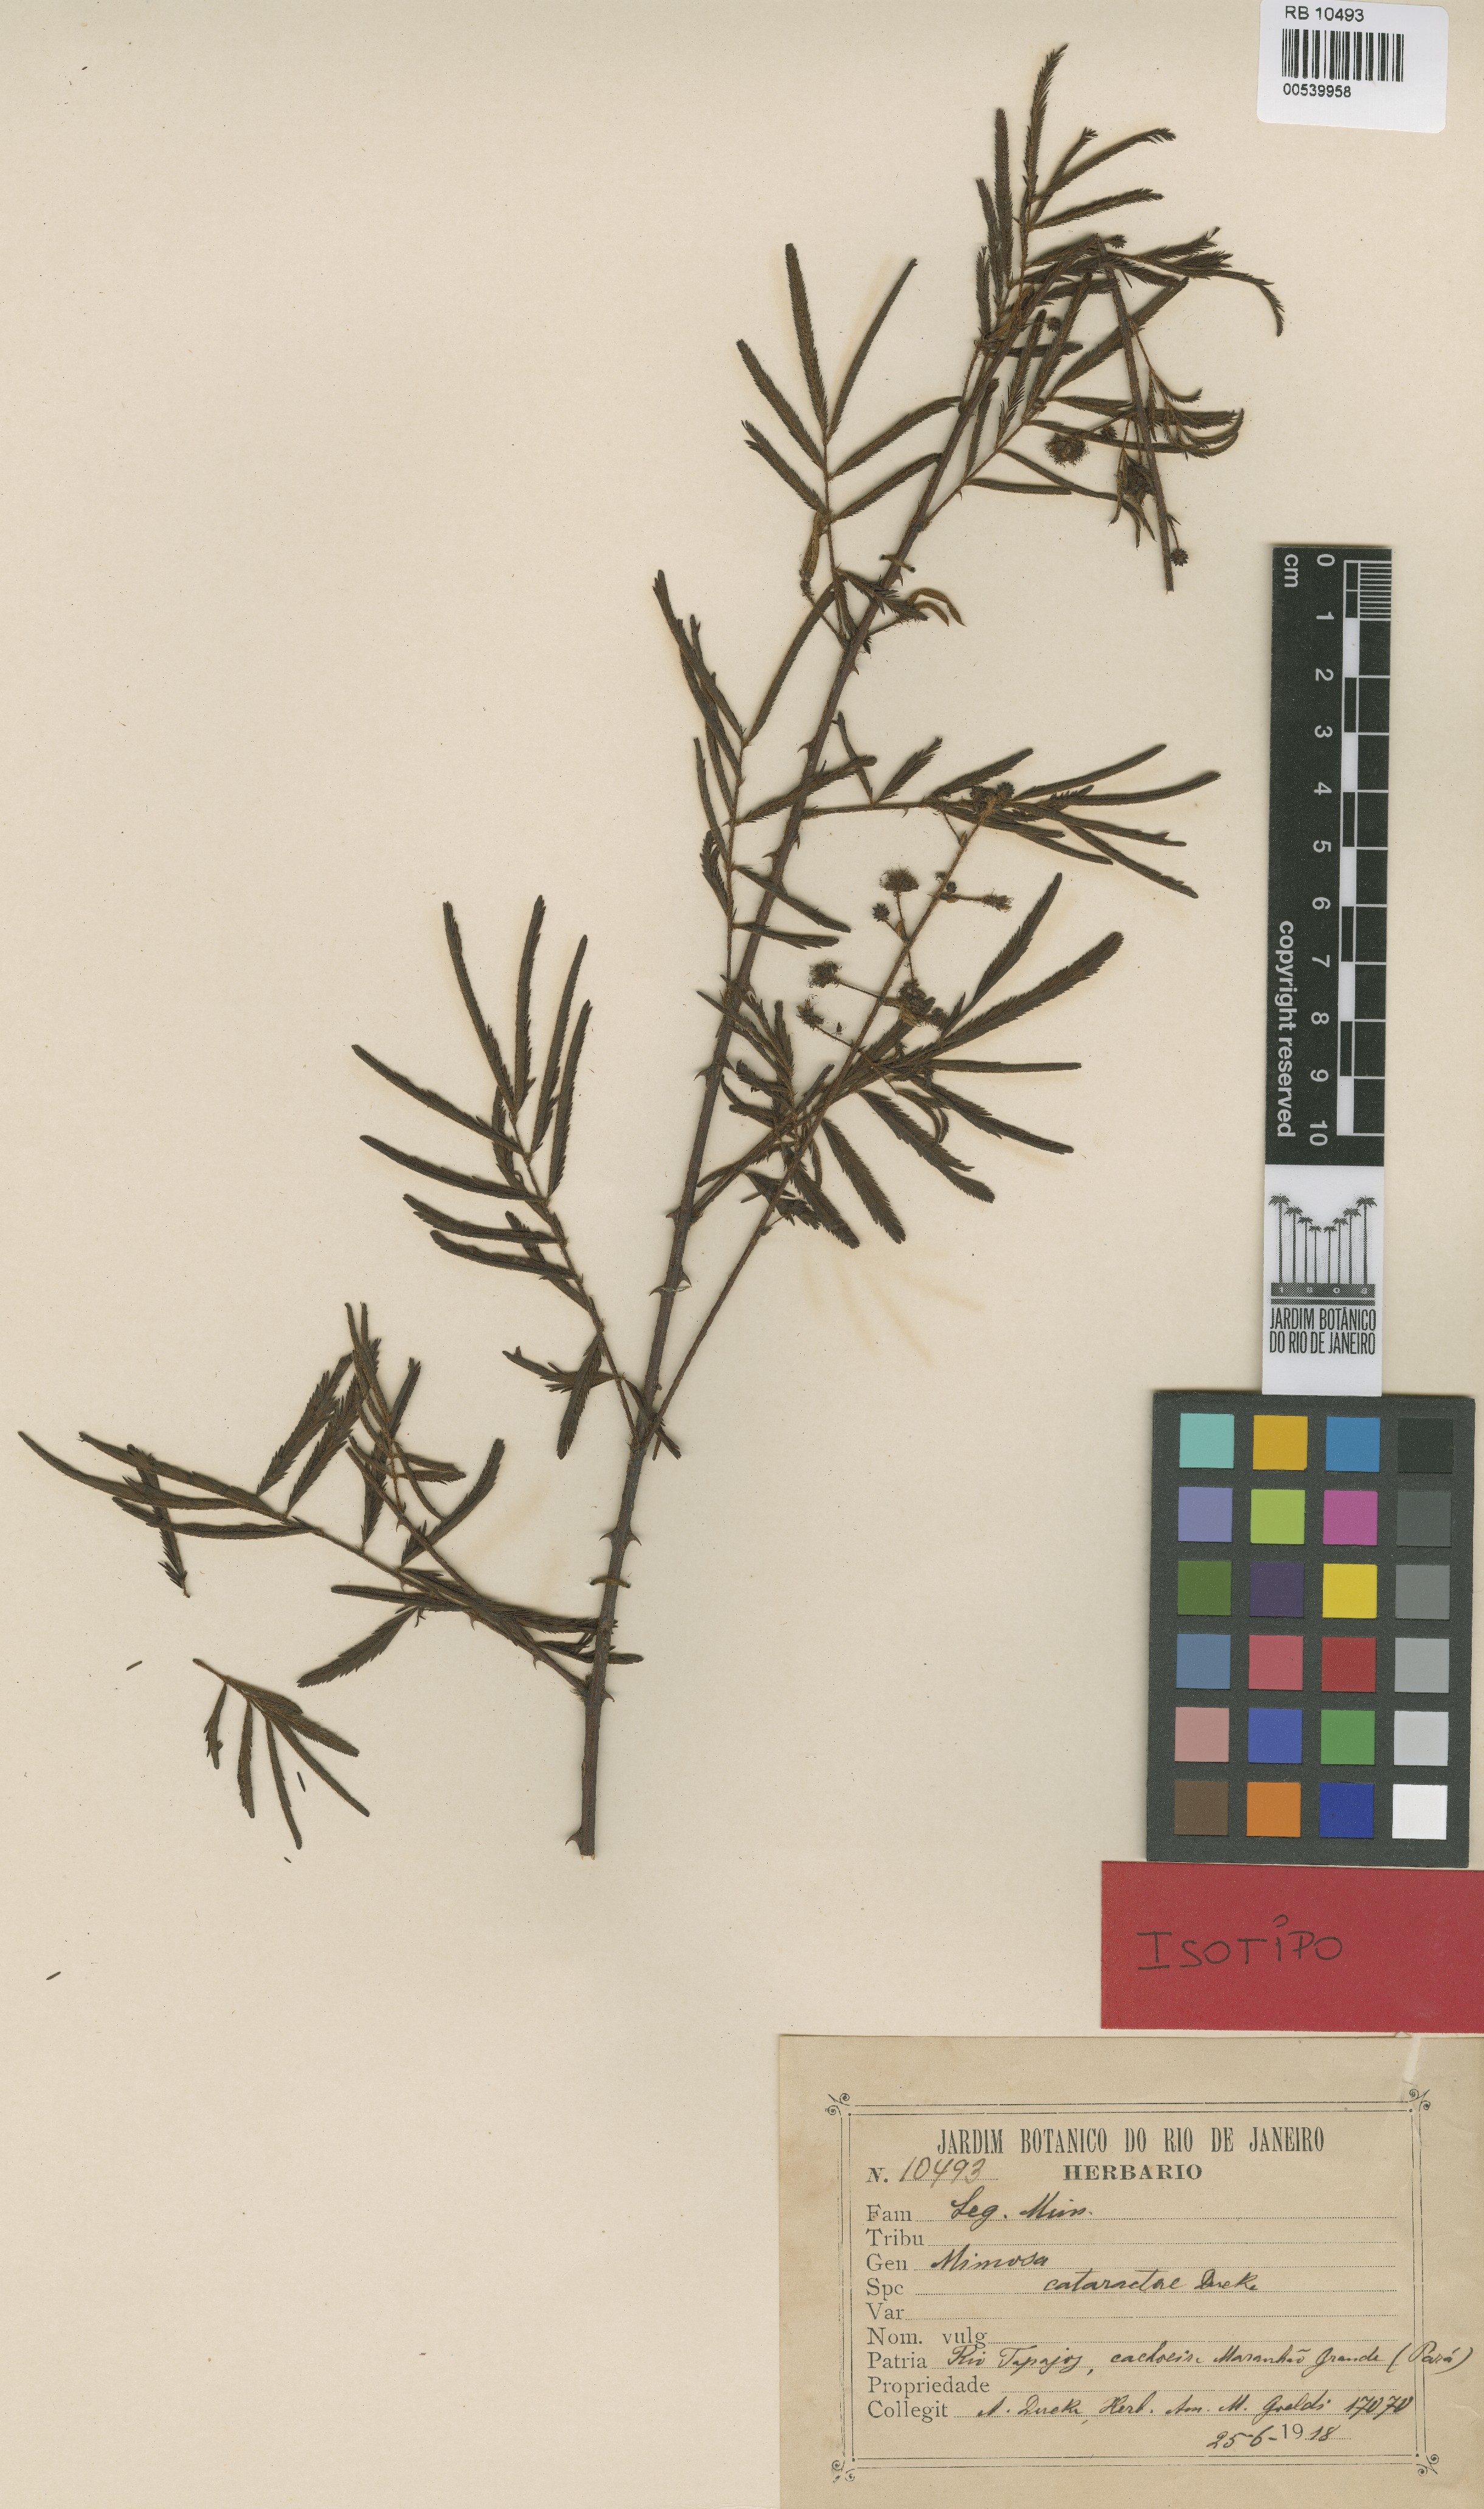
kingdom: Plantae
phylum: Tracheophyta
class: Magnoliopsida
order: Fabales
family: Fabaceae
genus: Mimosa
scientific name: Mimosa microcephala
